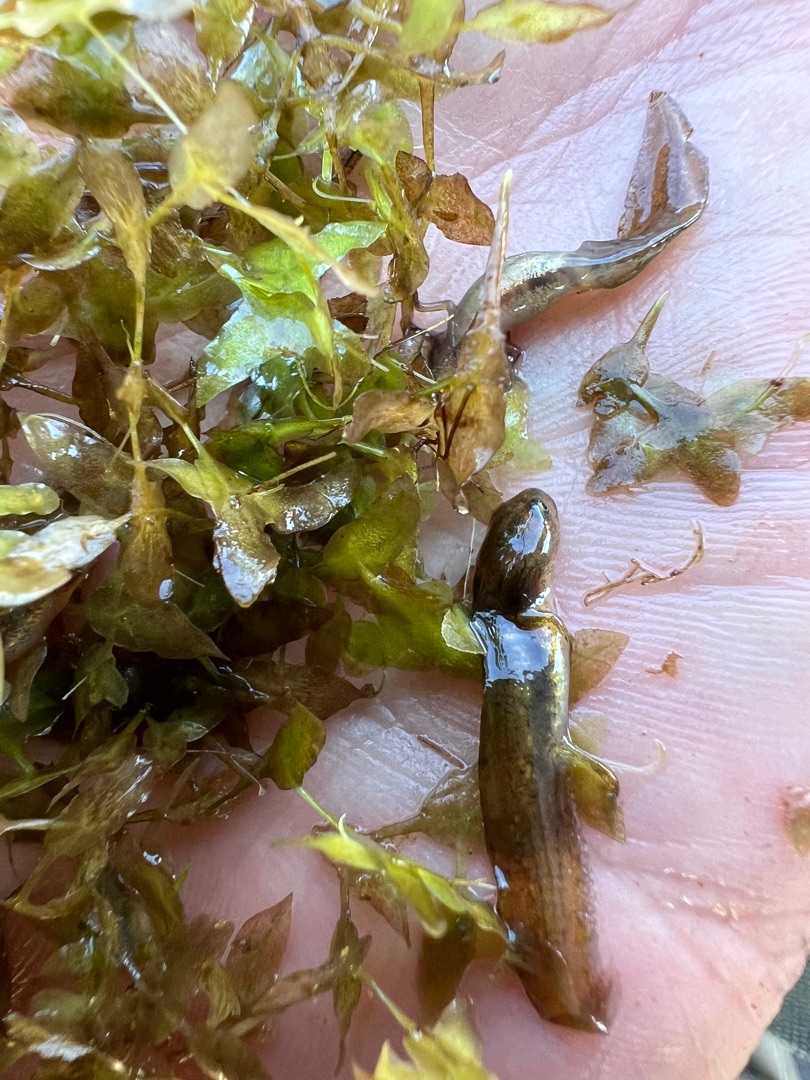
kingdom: Animalia
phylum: Chordata
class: Amphibia
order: Caudata
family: Salamandridae
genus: Lissotriton
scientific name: Lissotriton vulgaris
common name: Lille vandsalamander
